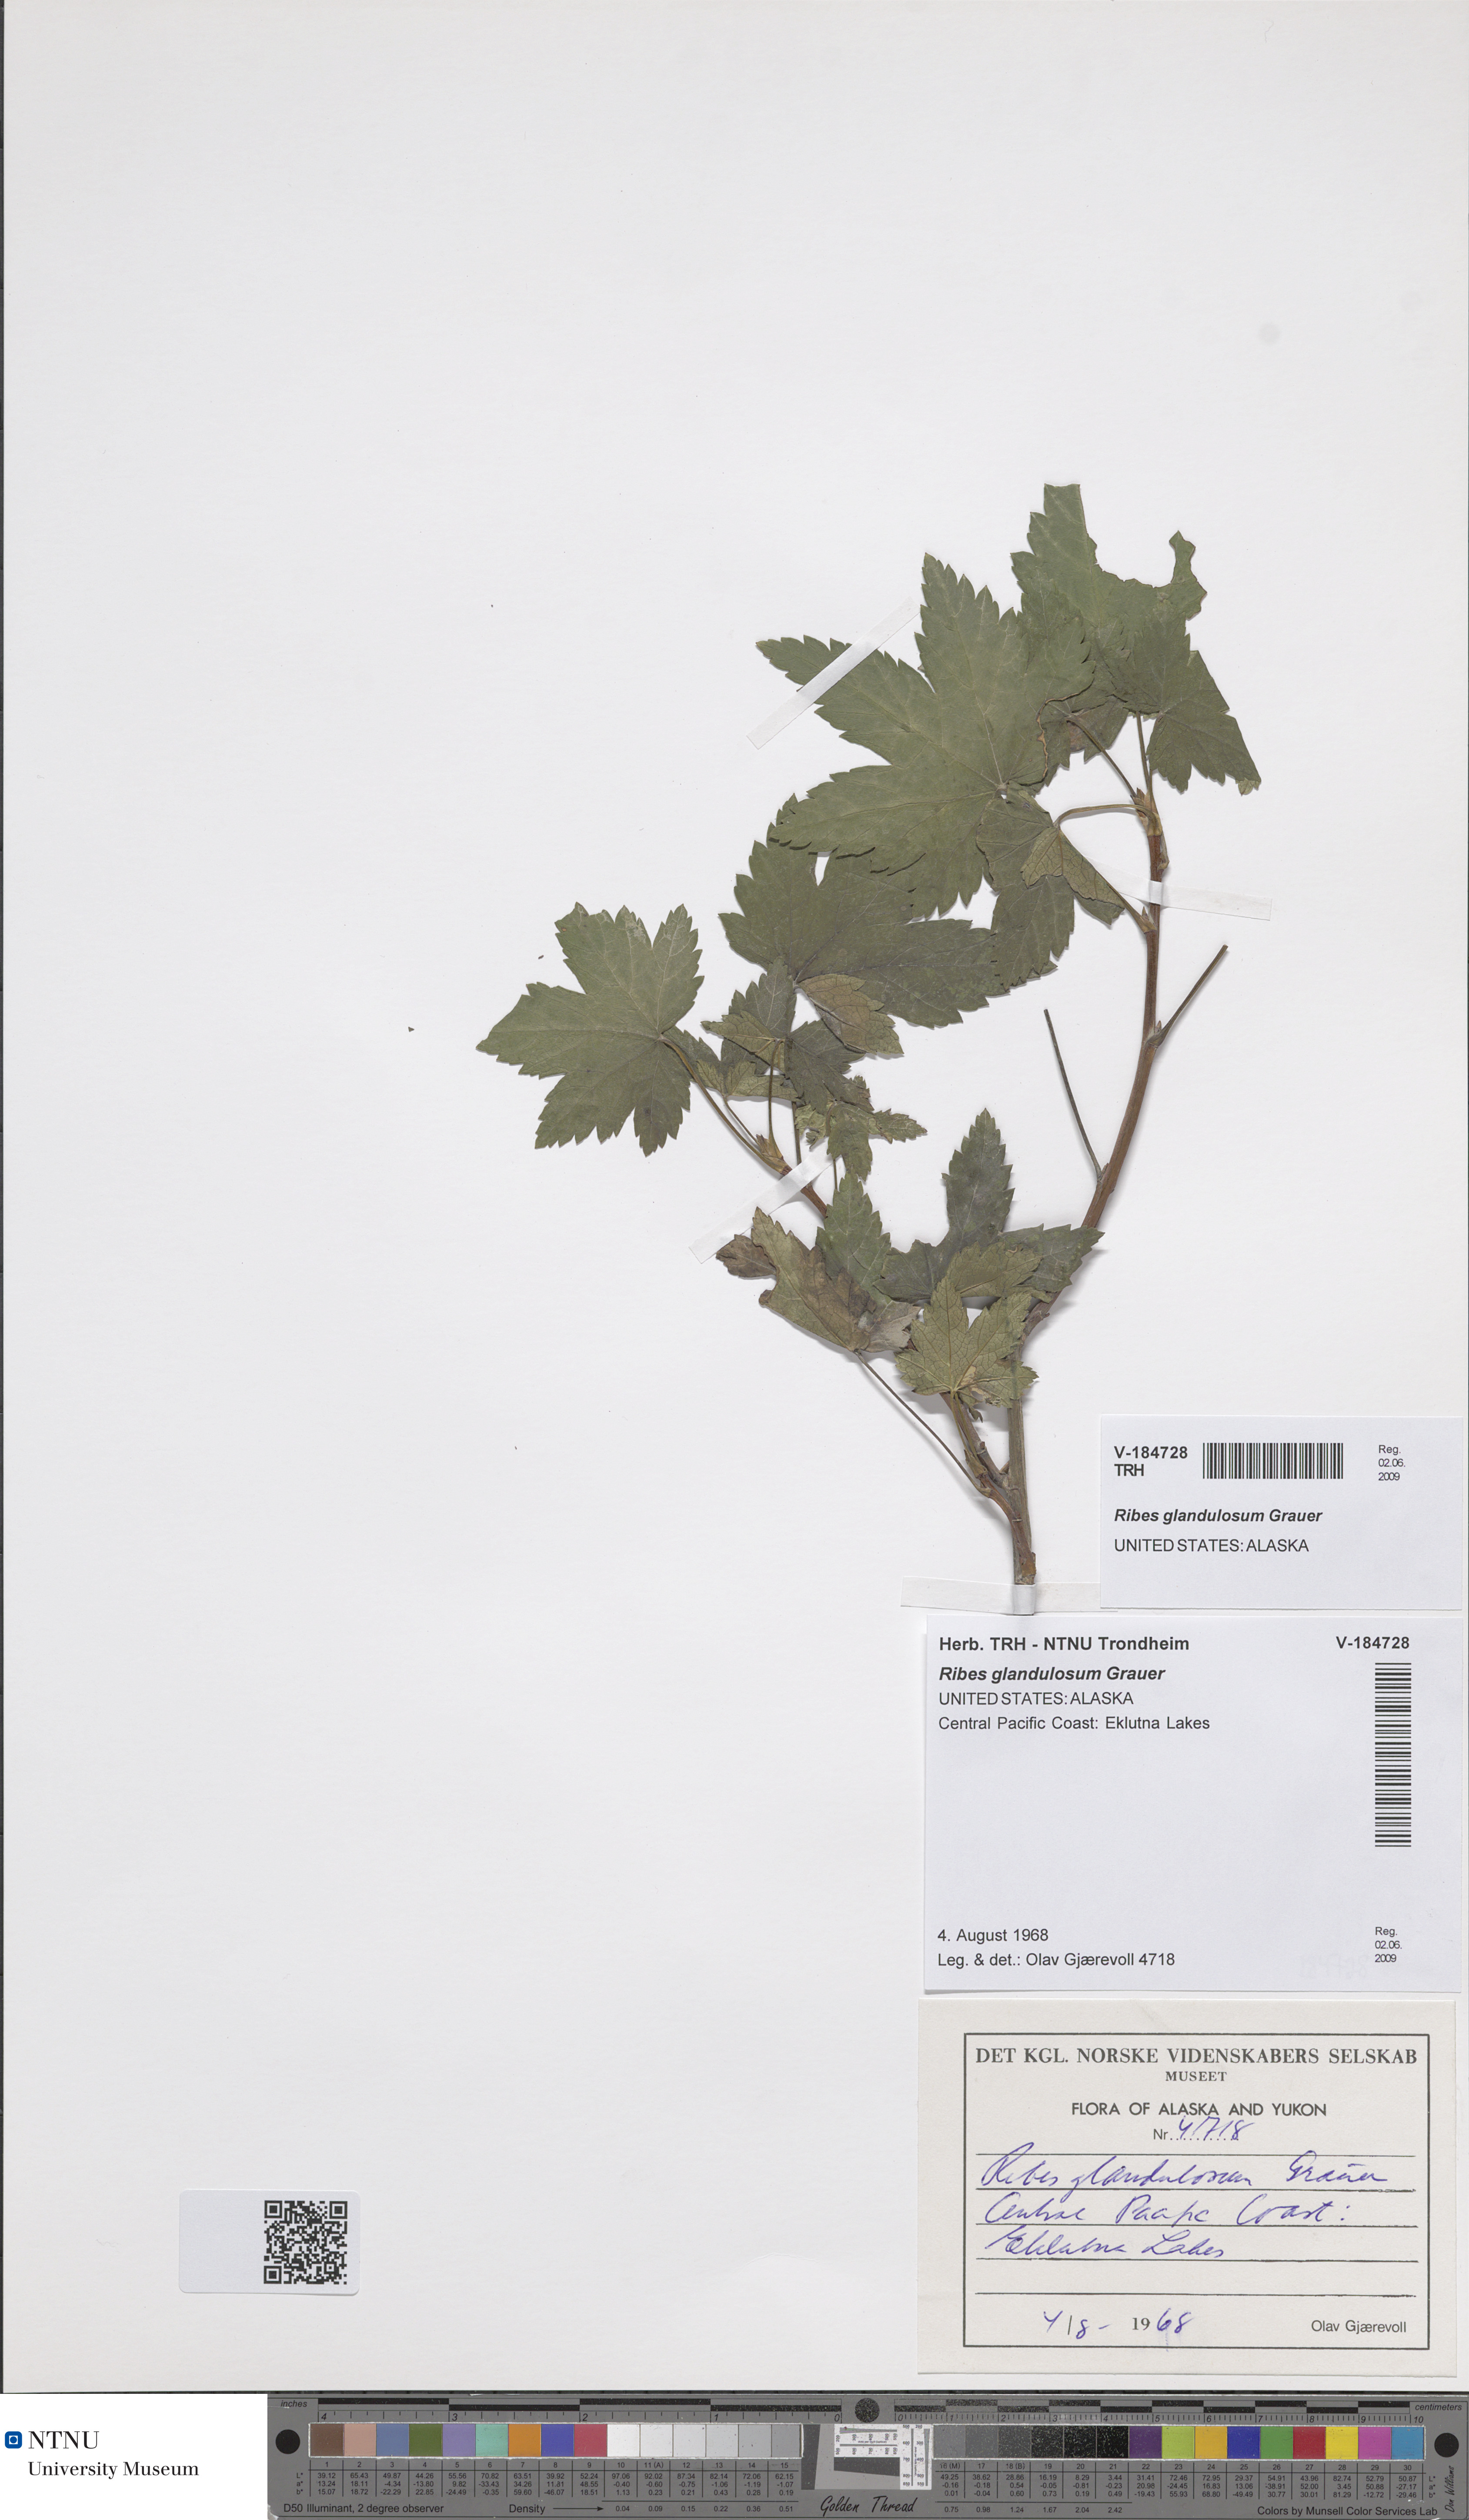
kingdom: Plantae
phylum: Tracheophyta
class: Magnoliopsida
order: Saxifragales
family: Grossulariaceae
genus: Ribes
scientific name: Ribes glandulosum
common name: Skunk currant
